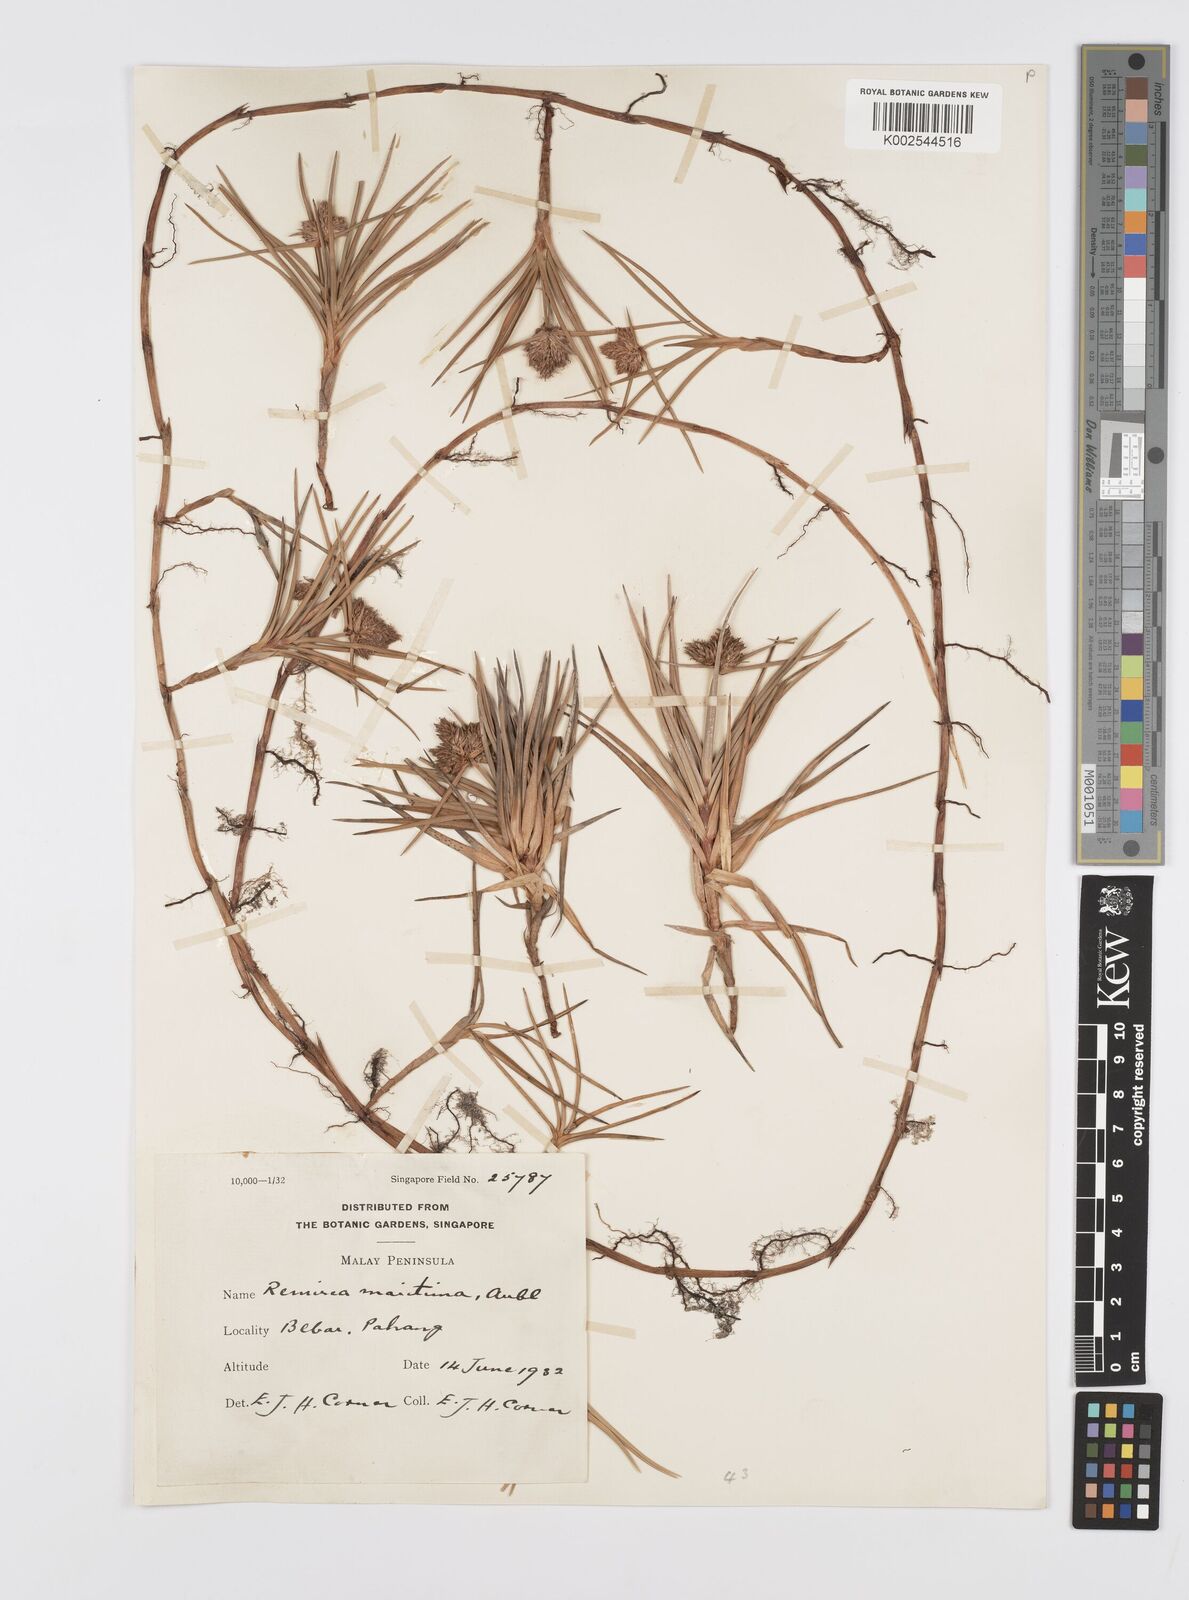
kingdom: Plantae
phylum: Tracheophyta
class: Liliopsida
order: Poales
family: Cyperaceae
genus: Cyperus
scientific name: Cyperus
